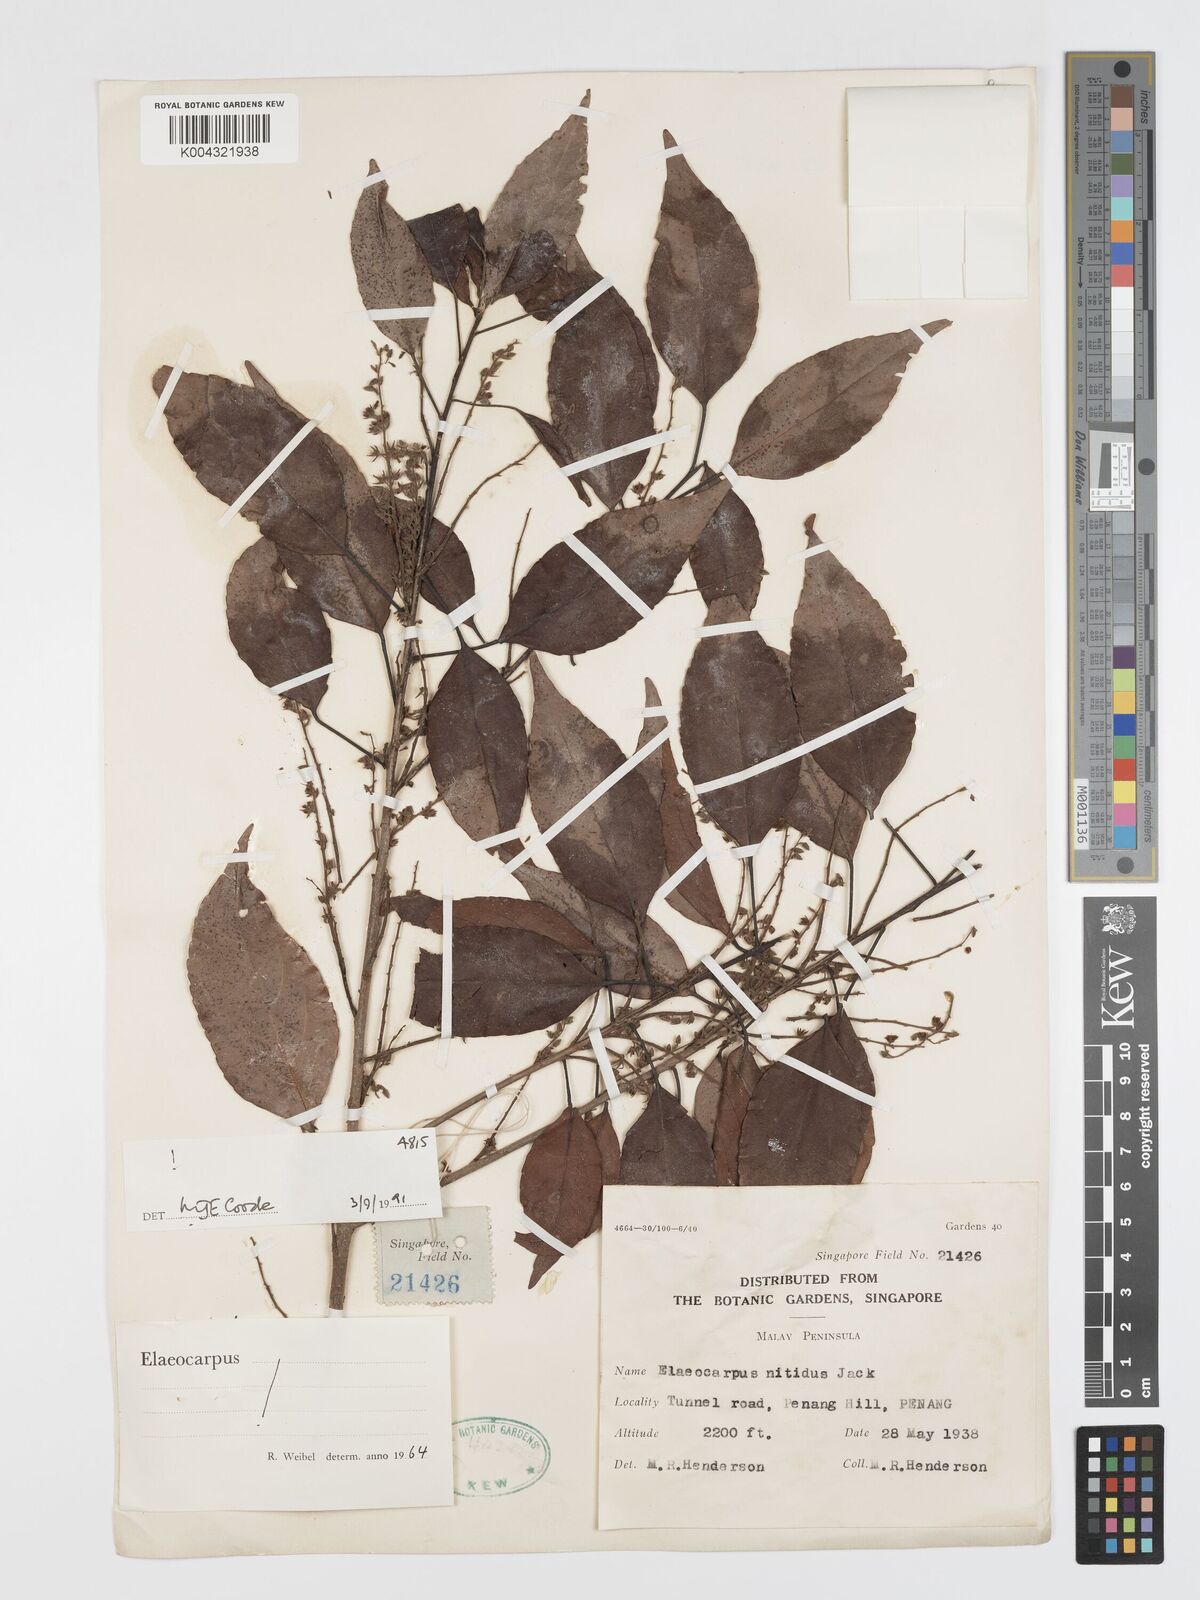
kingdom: Plantae
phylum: Tracheophyta
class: Magnoliopsida
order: Oxalidales
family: Elaeocarpaceae
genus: Elaeocarpus
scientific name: Elaeocarpus nitidus
